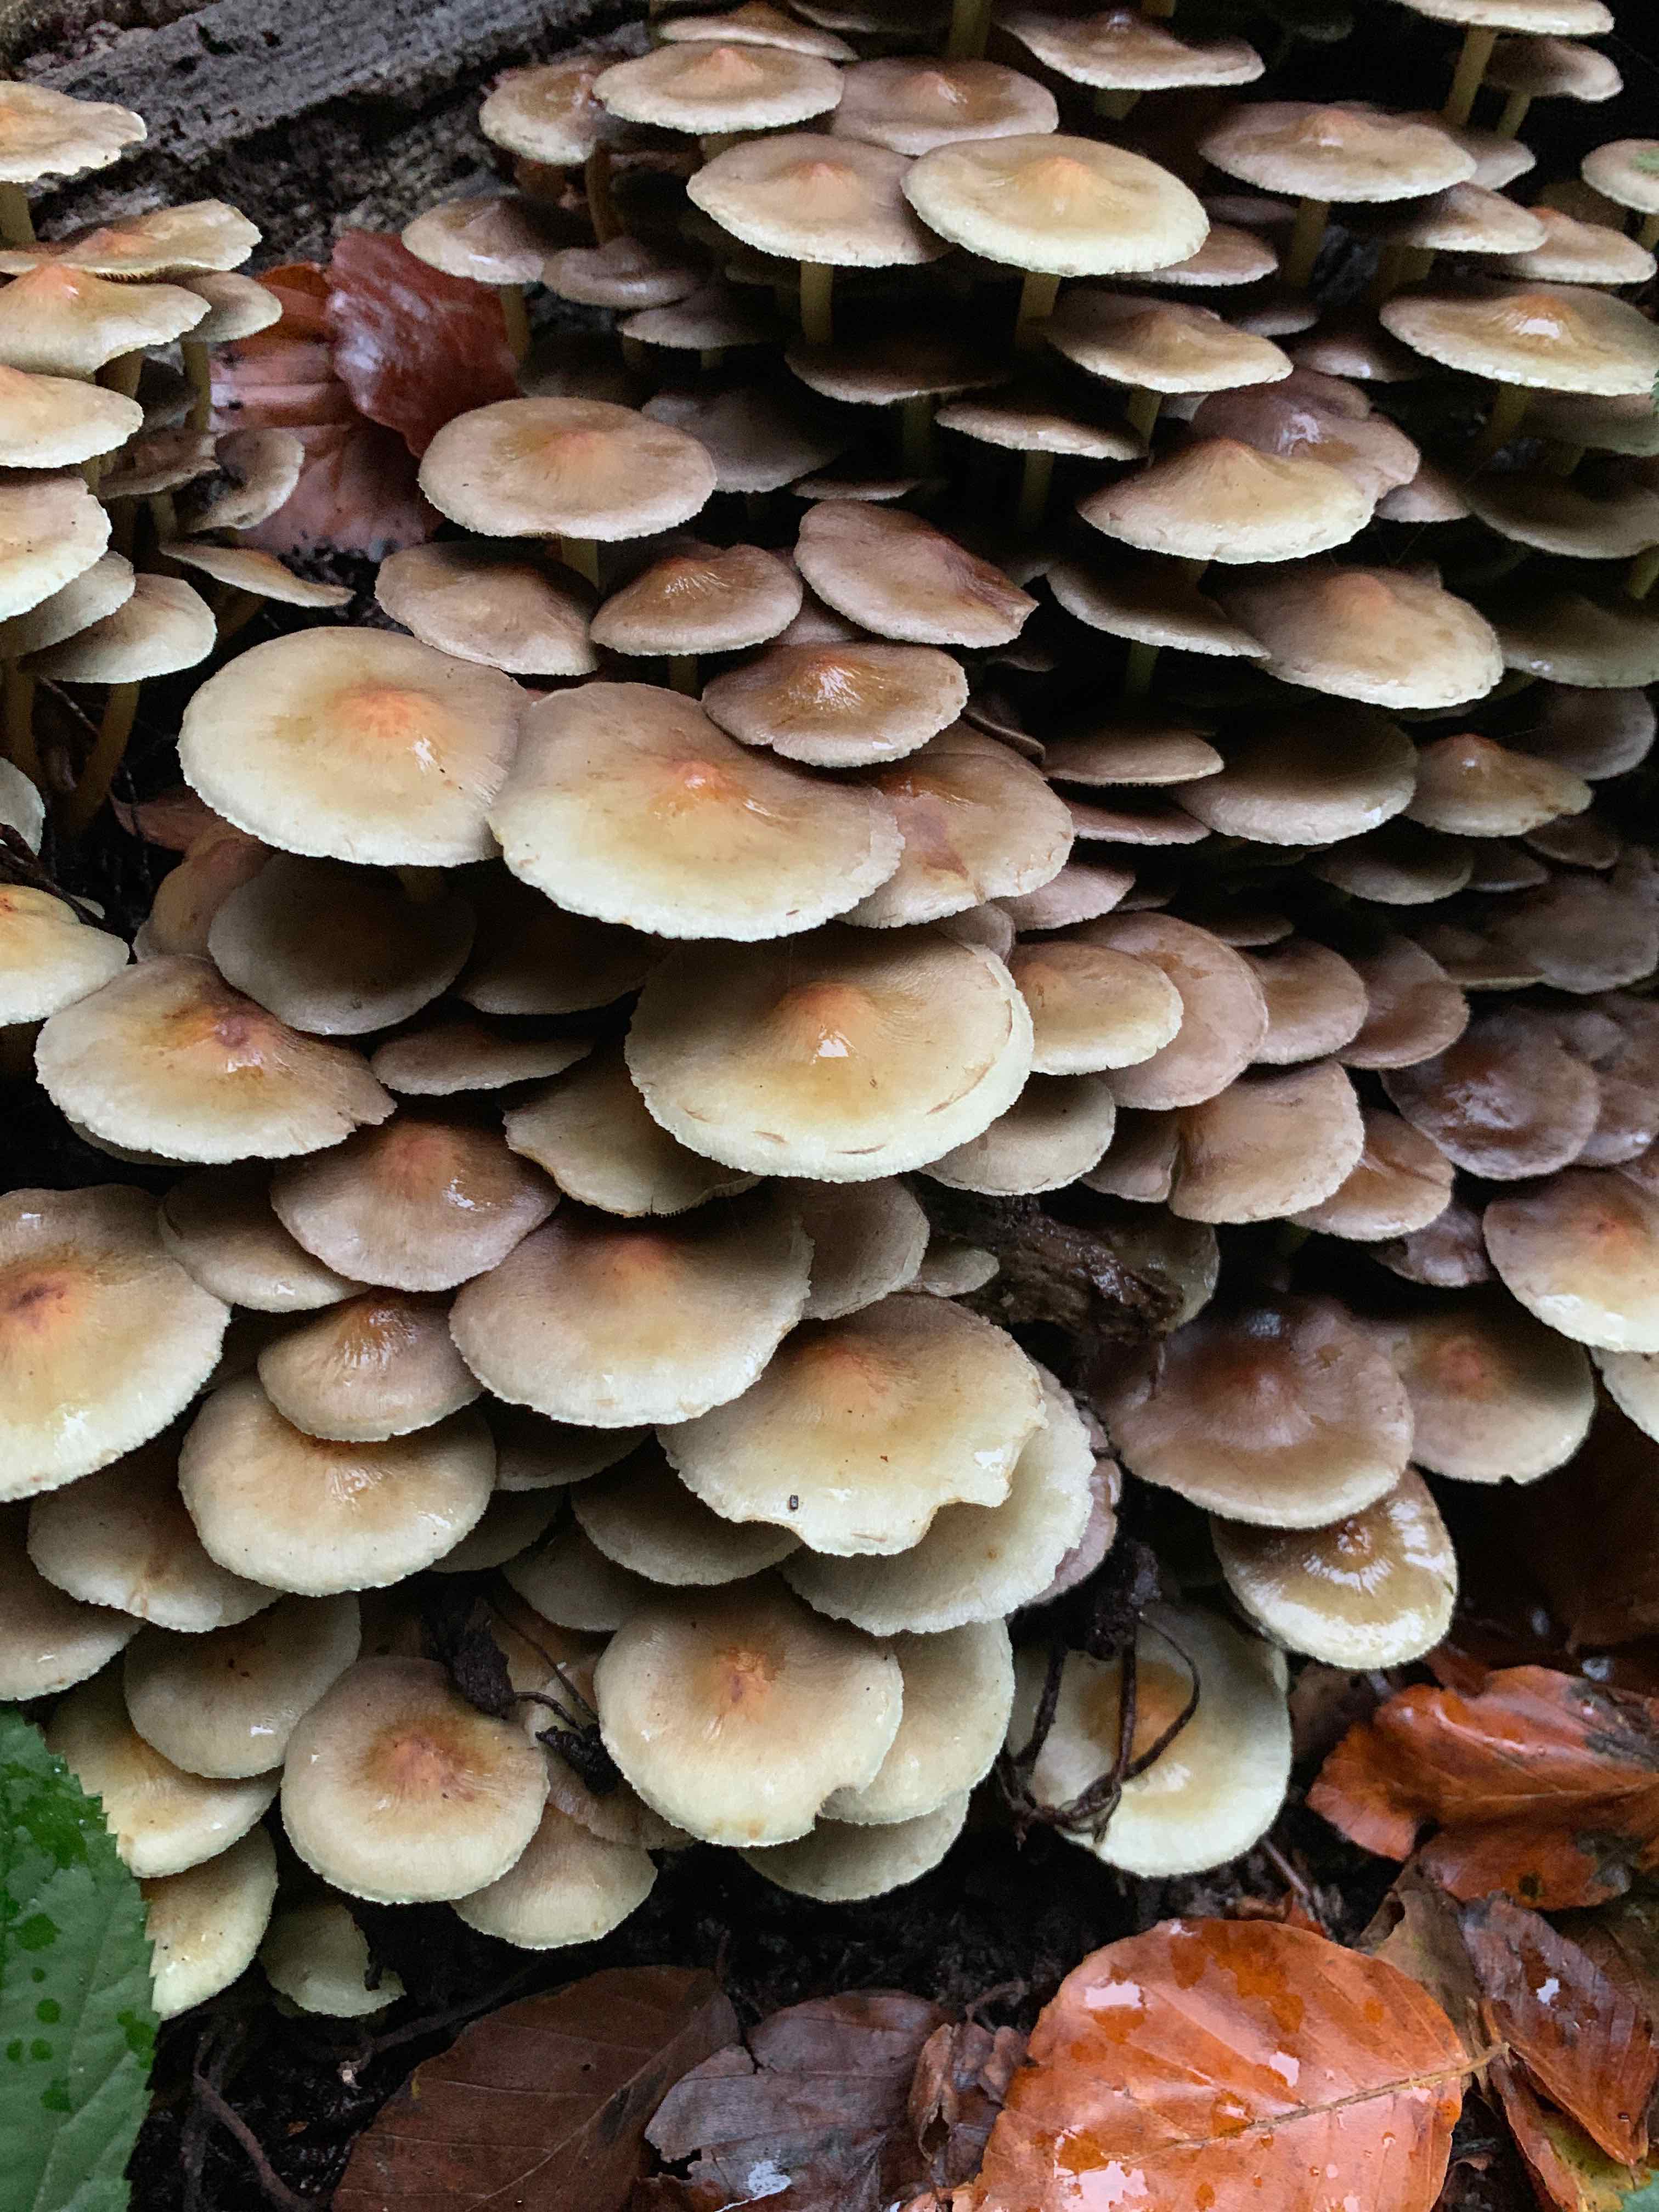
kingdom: Fungi
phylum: Basidiomycota
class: Agaricomycetes
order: Agaricales
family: Strophariaceae
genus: Hypholoma
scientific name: Hypholoma fasciculare
